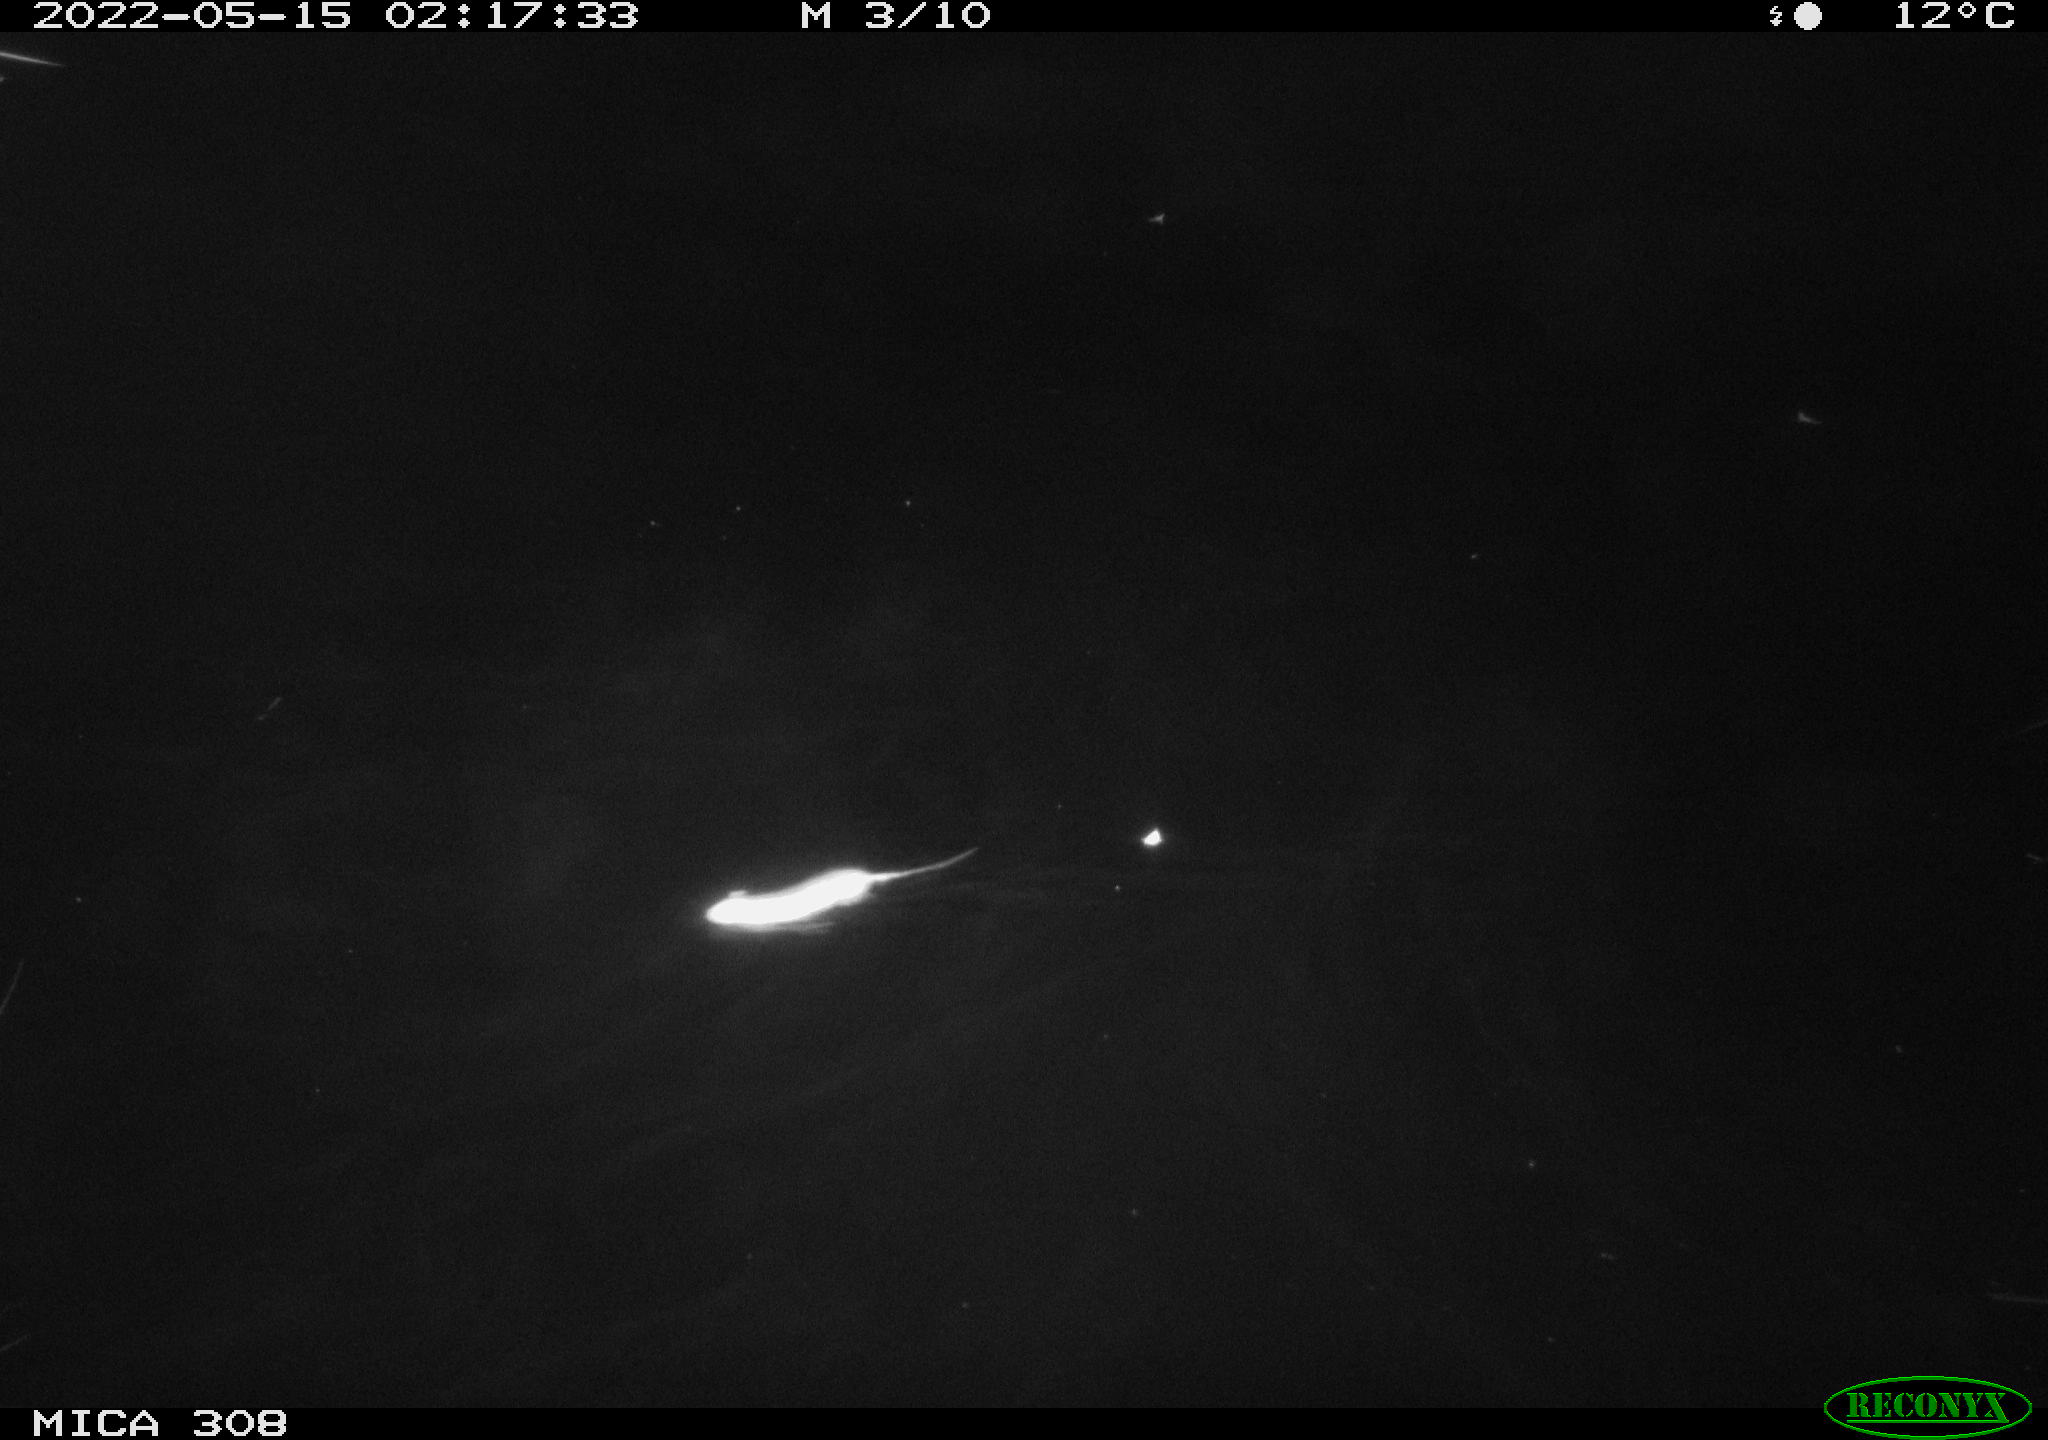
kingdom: Animalia
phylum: Chordata
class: Mammalia
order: Rodentia
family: Muridae
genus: Rattus
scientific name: Rattus norvegicus
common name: Brown rat
